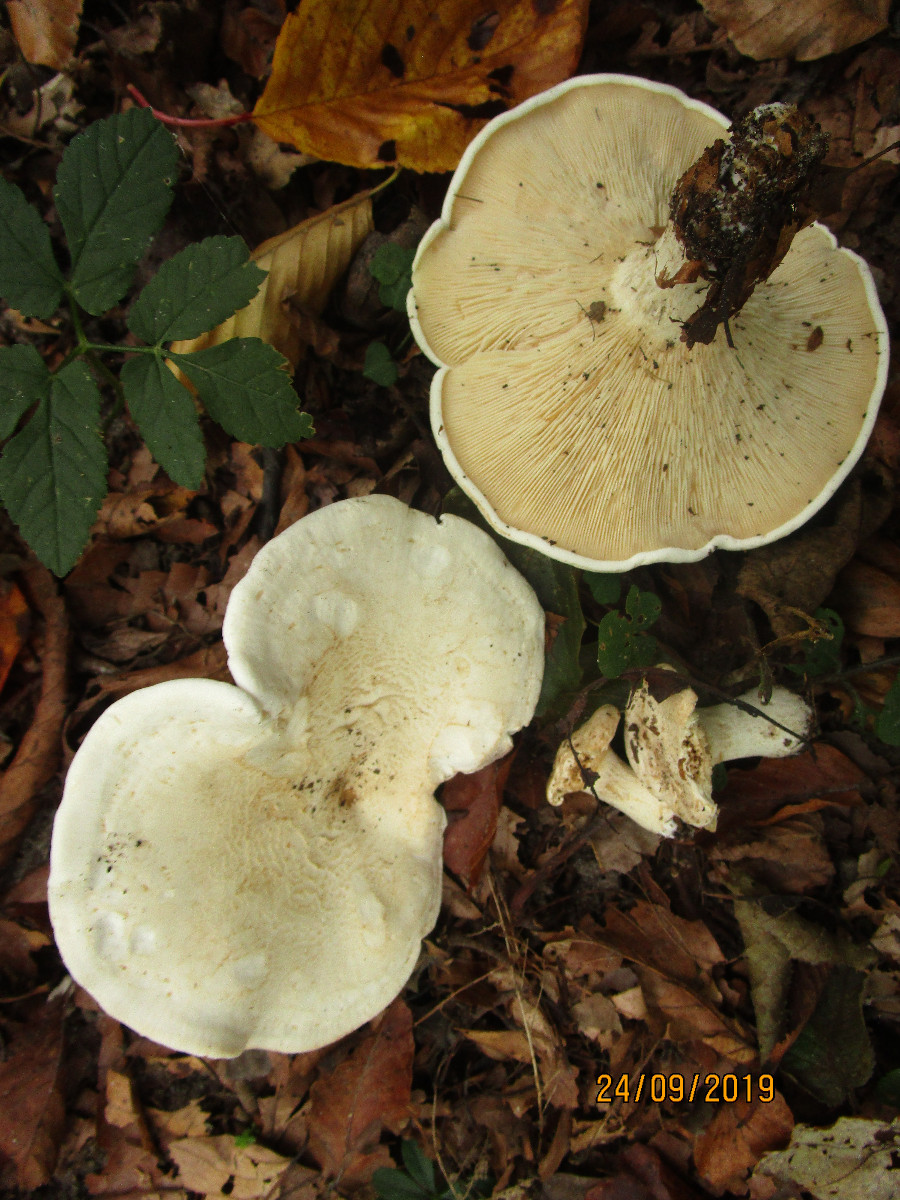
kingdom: Fungi
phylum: Basidiomycota
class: Agaricomycetes
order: Agaricales
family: Tricholomataceae
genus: Aspropaxillus
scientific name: Aspropaxillus giganteus
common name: kæmpe-tragtridderhat
